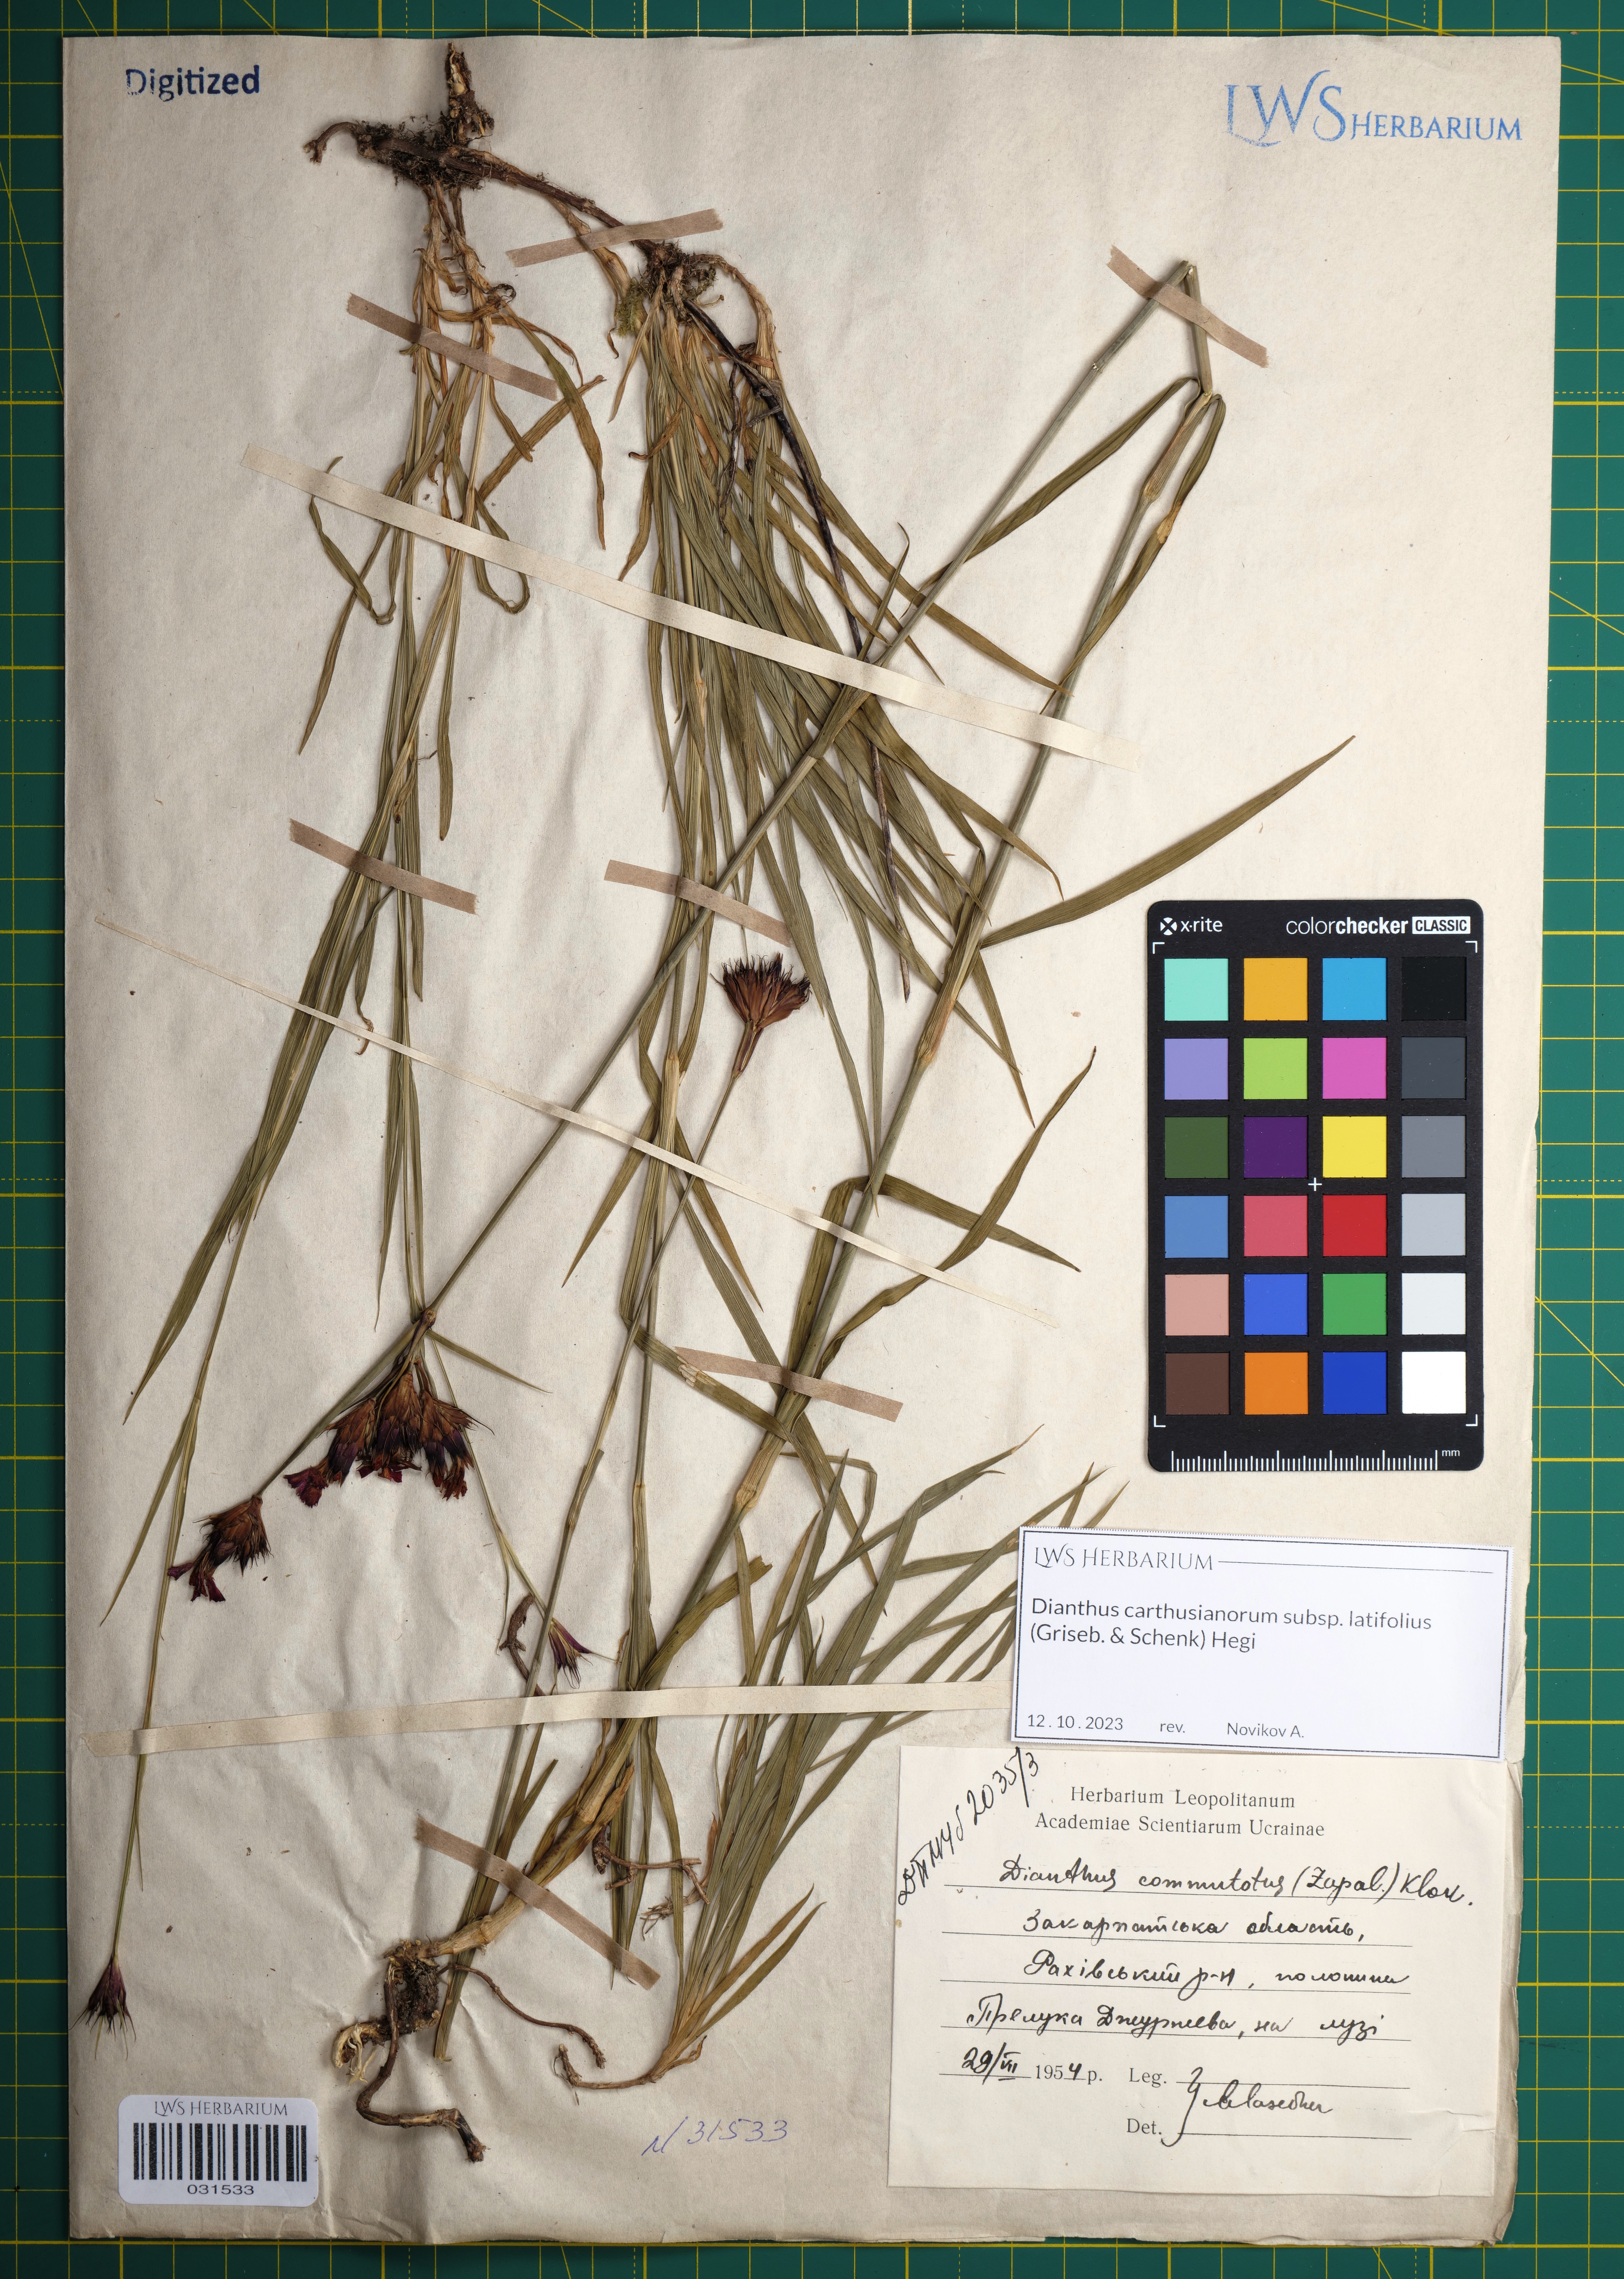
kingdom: Plantae
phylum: Tracheophyta
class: Magnoliopsida
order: Caryophyllales
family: Caryophyllaceae
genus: Dianthus
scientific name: Dianthus carthusianorum
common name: Carthusian pink
